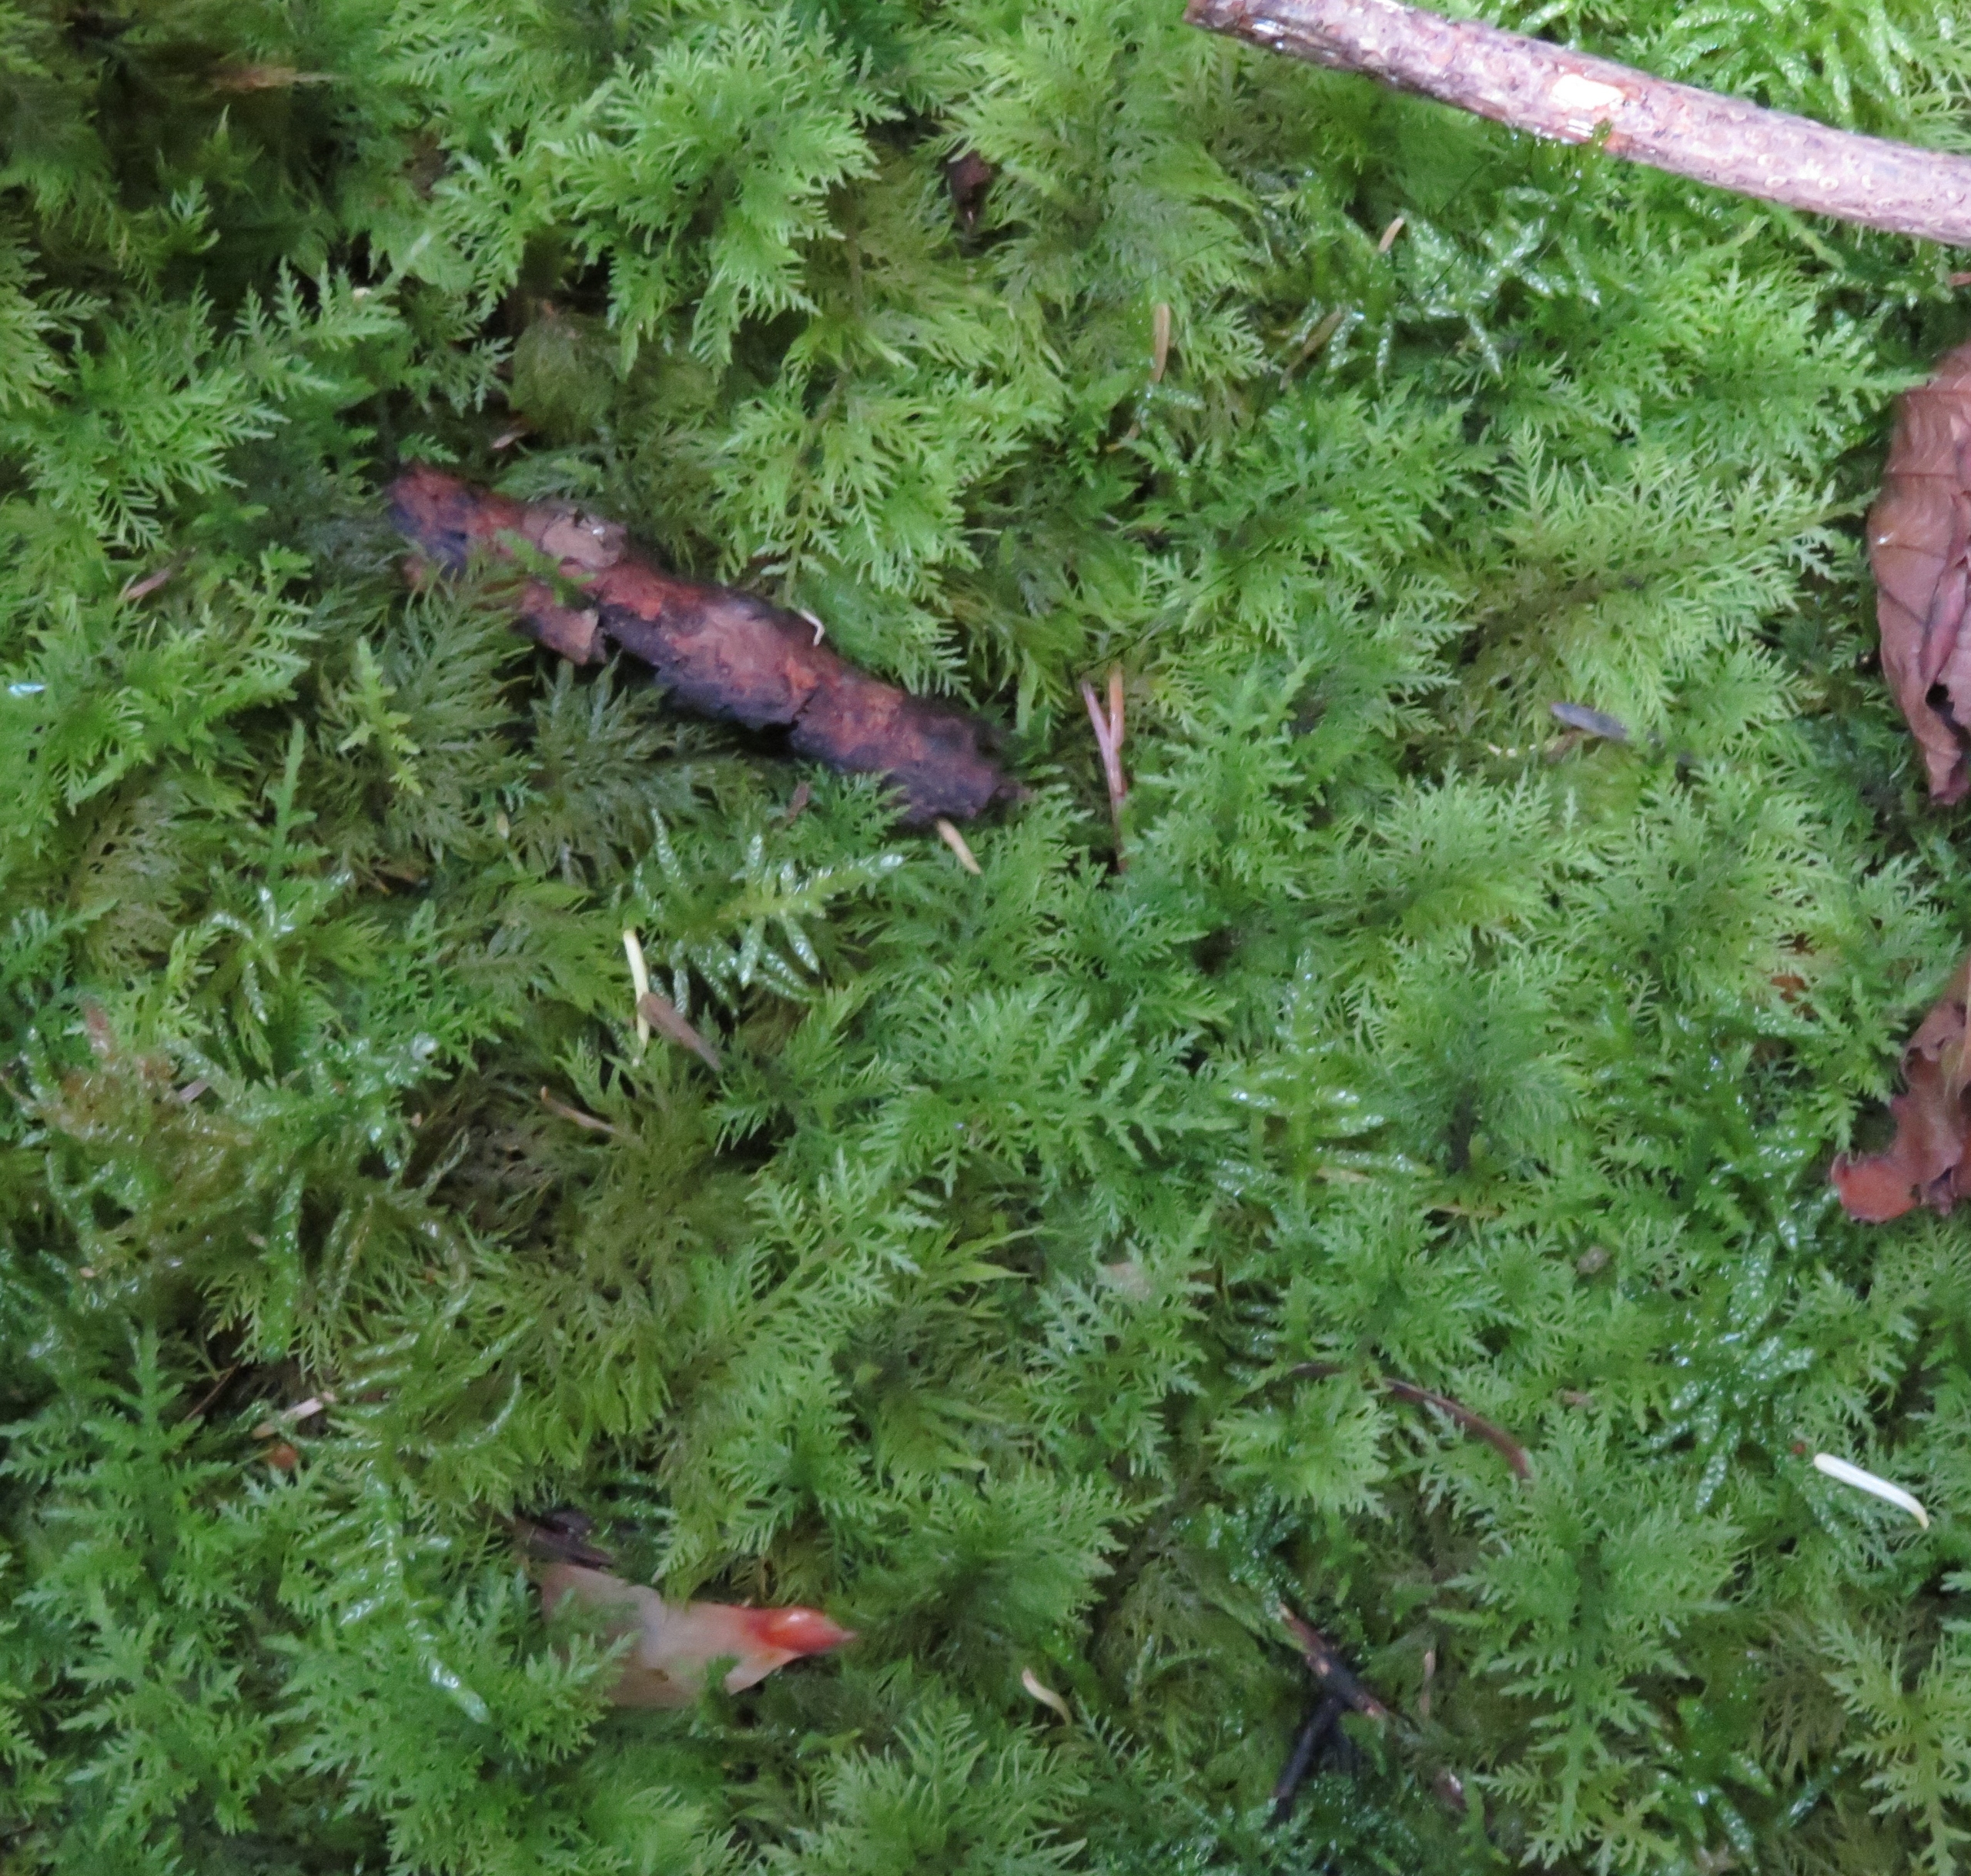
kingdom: Plantae
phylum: Bryophyta
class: Bryopsida
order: Hypnales
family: Thuidiaceae
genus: Thuidium
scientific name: Thuidium tamariscinum
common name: Pryd-bregnemos
